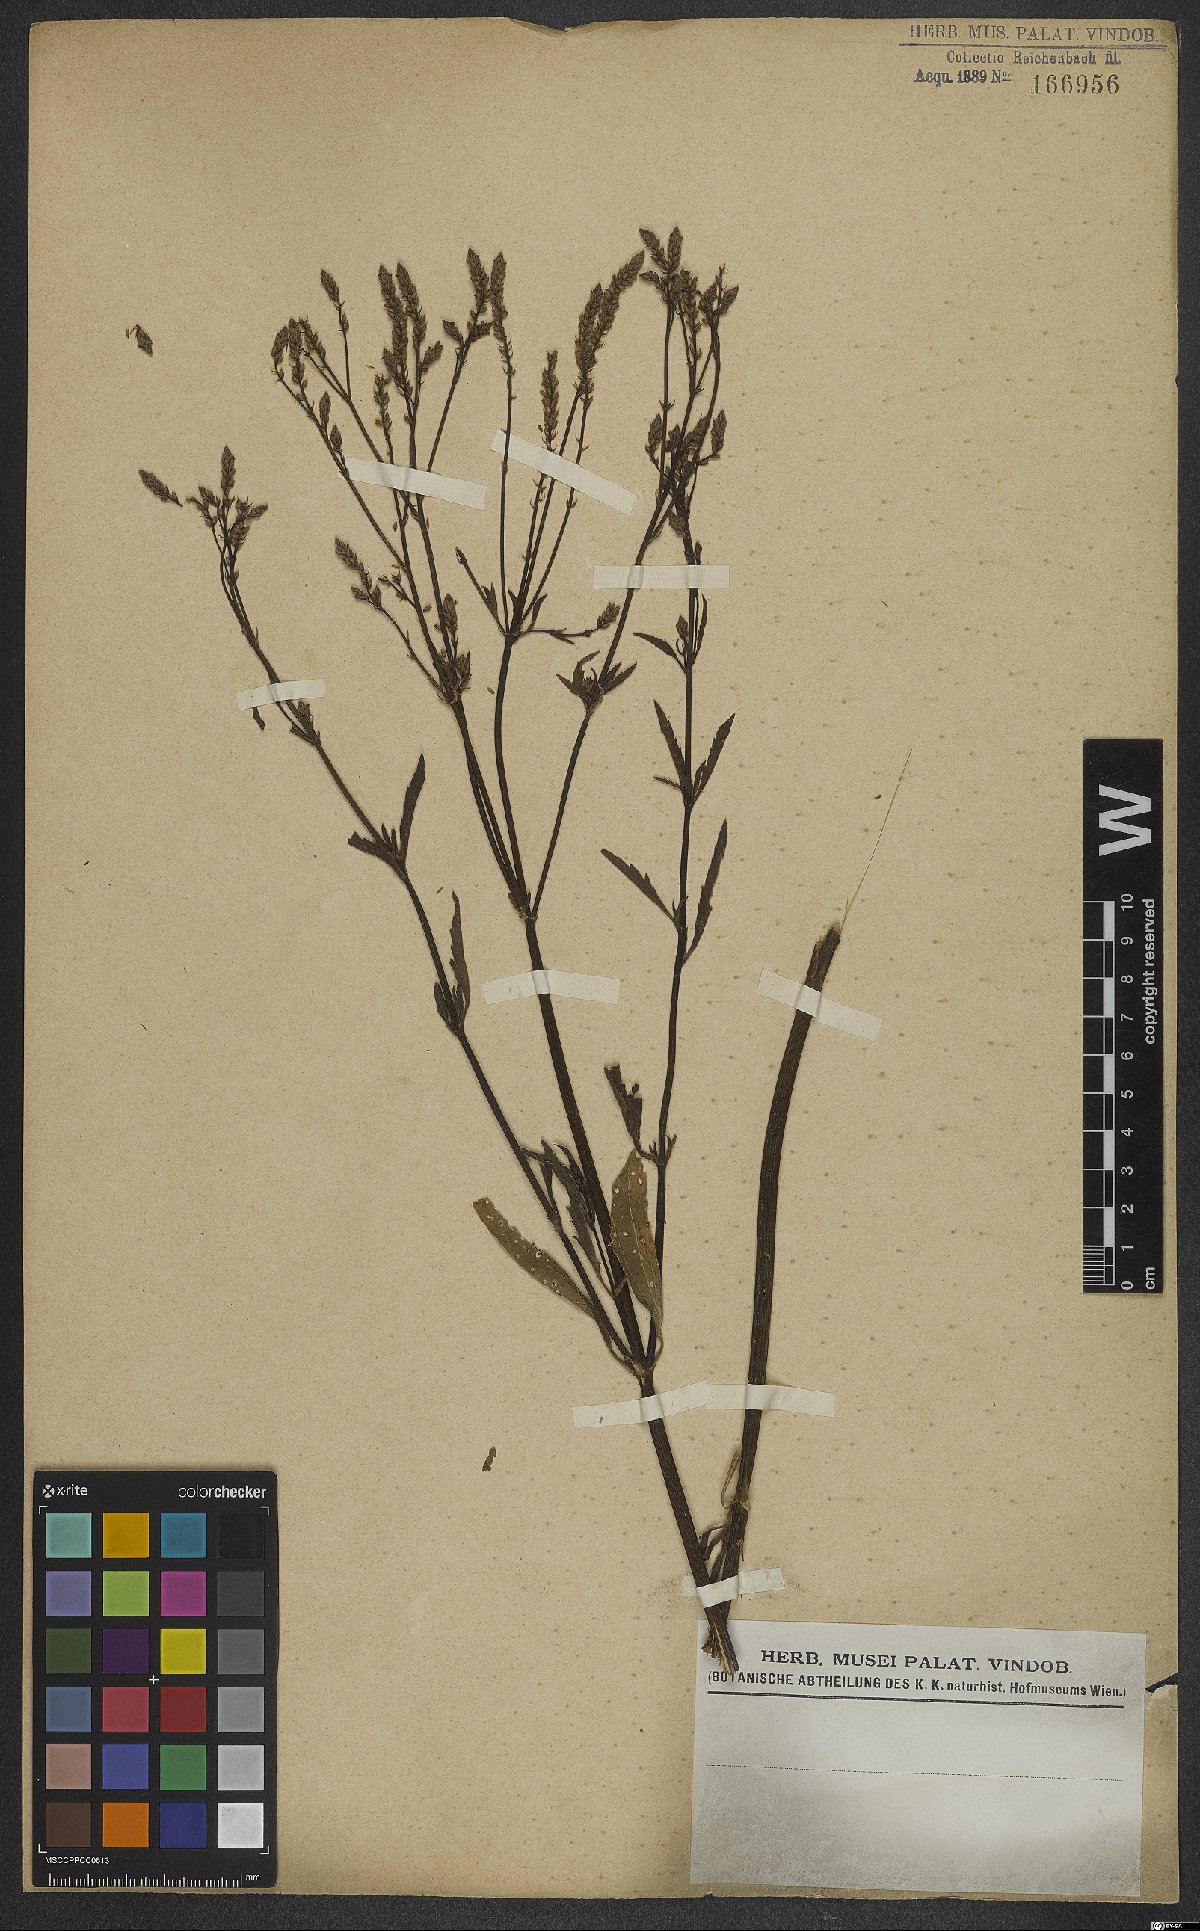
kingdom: Plantae
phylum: Tracheophyta
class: Magnoliopsida
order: Lamiales
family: Verbenaceae
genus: Verbena
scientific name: Verbena litoralis
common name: Seashore vervain
